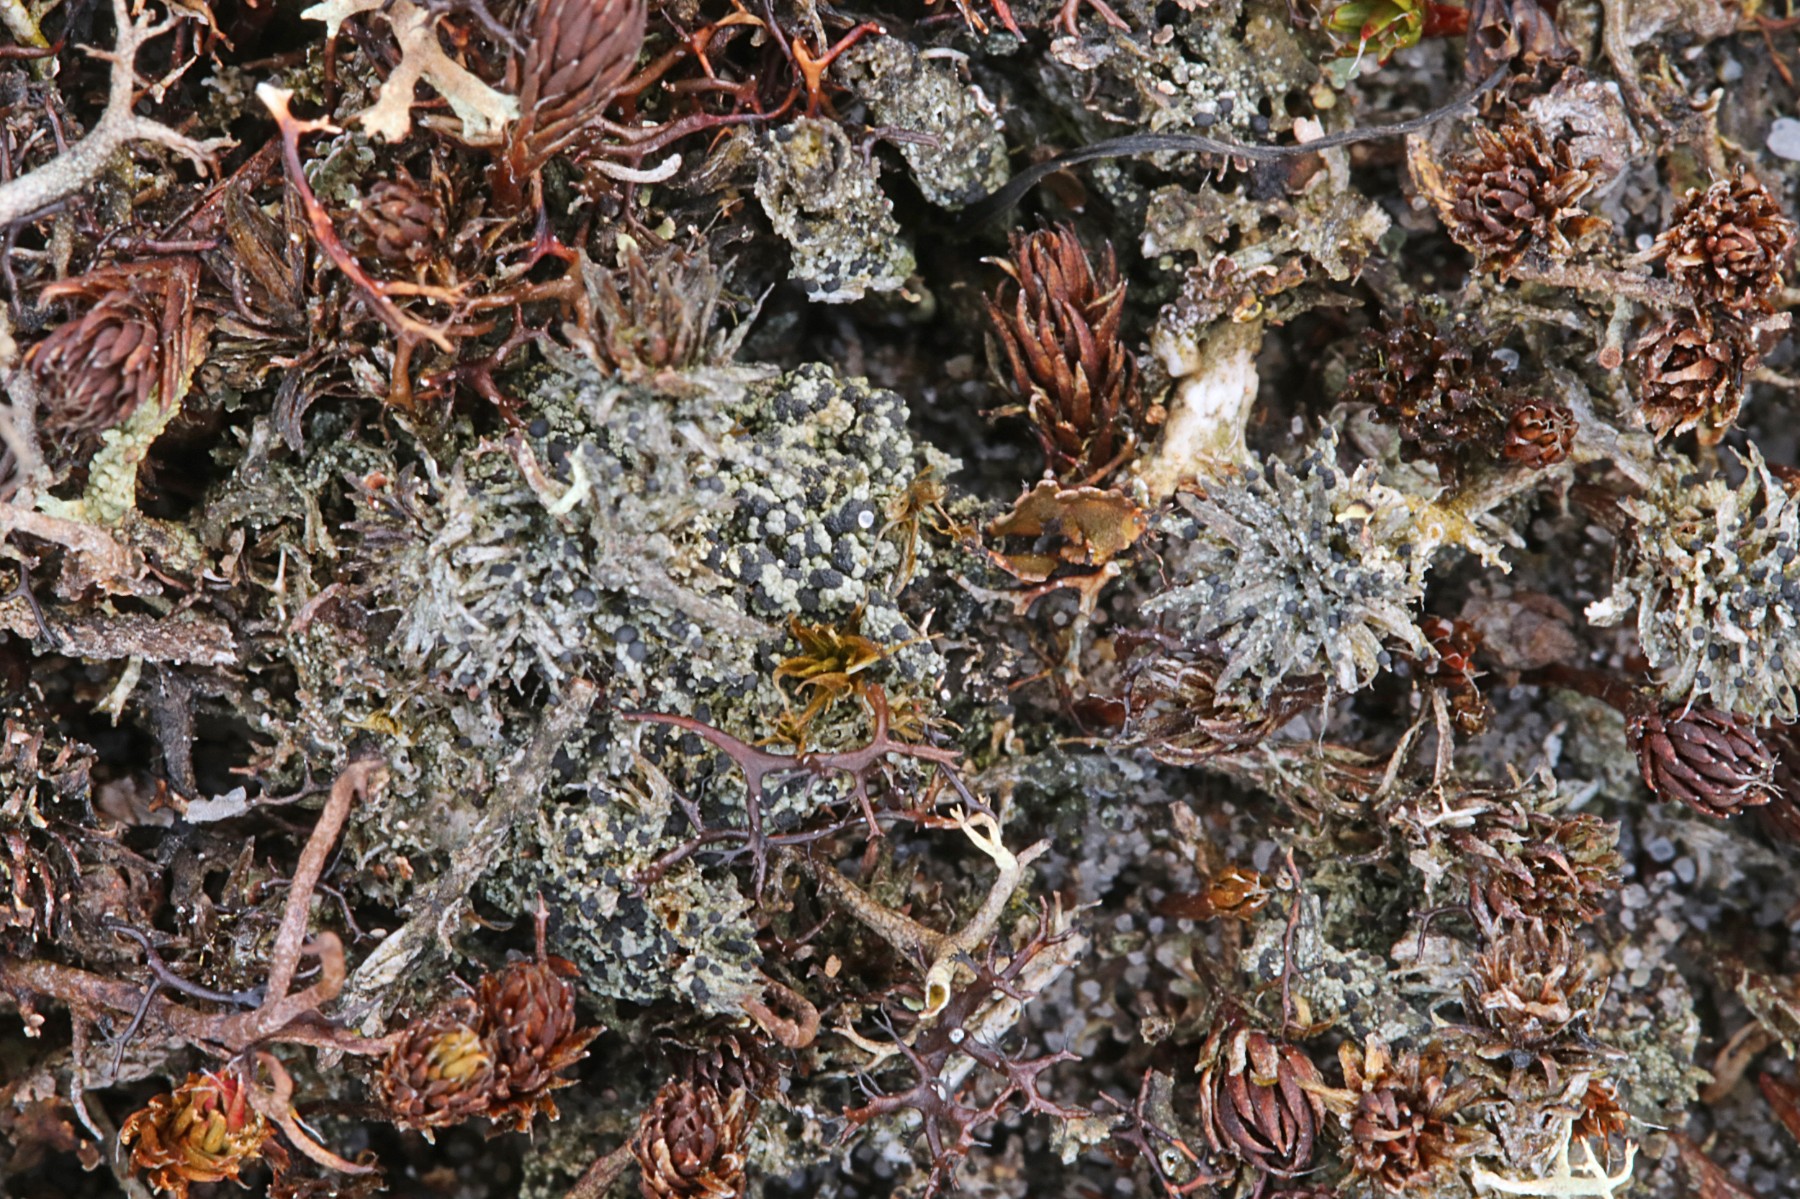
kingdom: Fungi
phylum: Ascomycota
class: Lecanoromycetes
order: Lecanorales
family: Byssolomataceae
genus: Micarea
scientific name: Micarea lignaria
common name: tørve-knaplav
